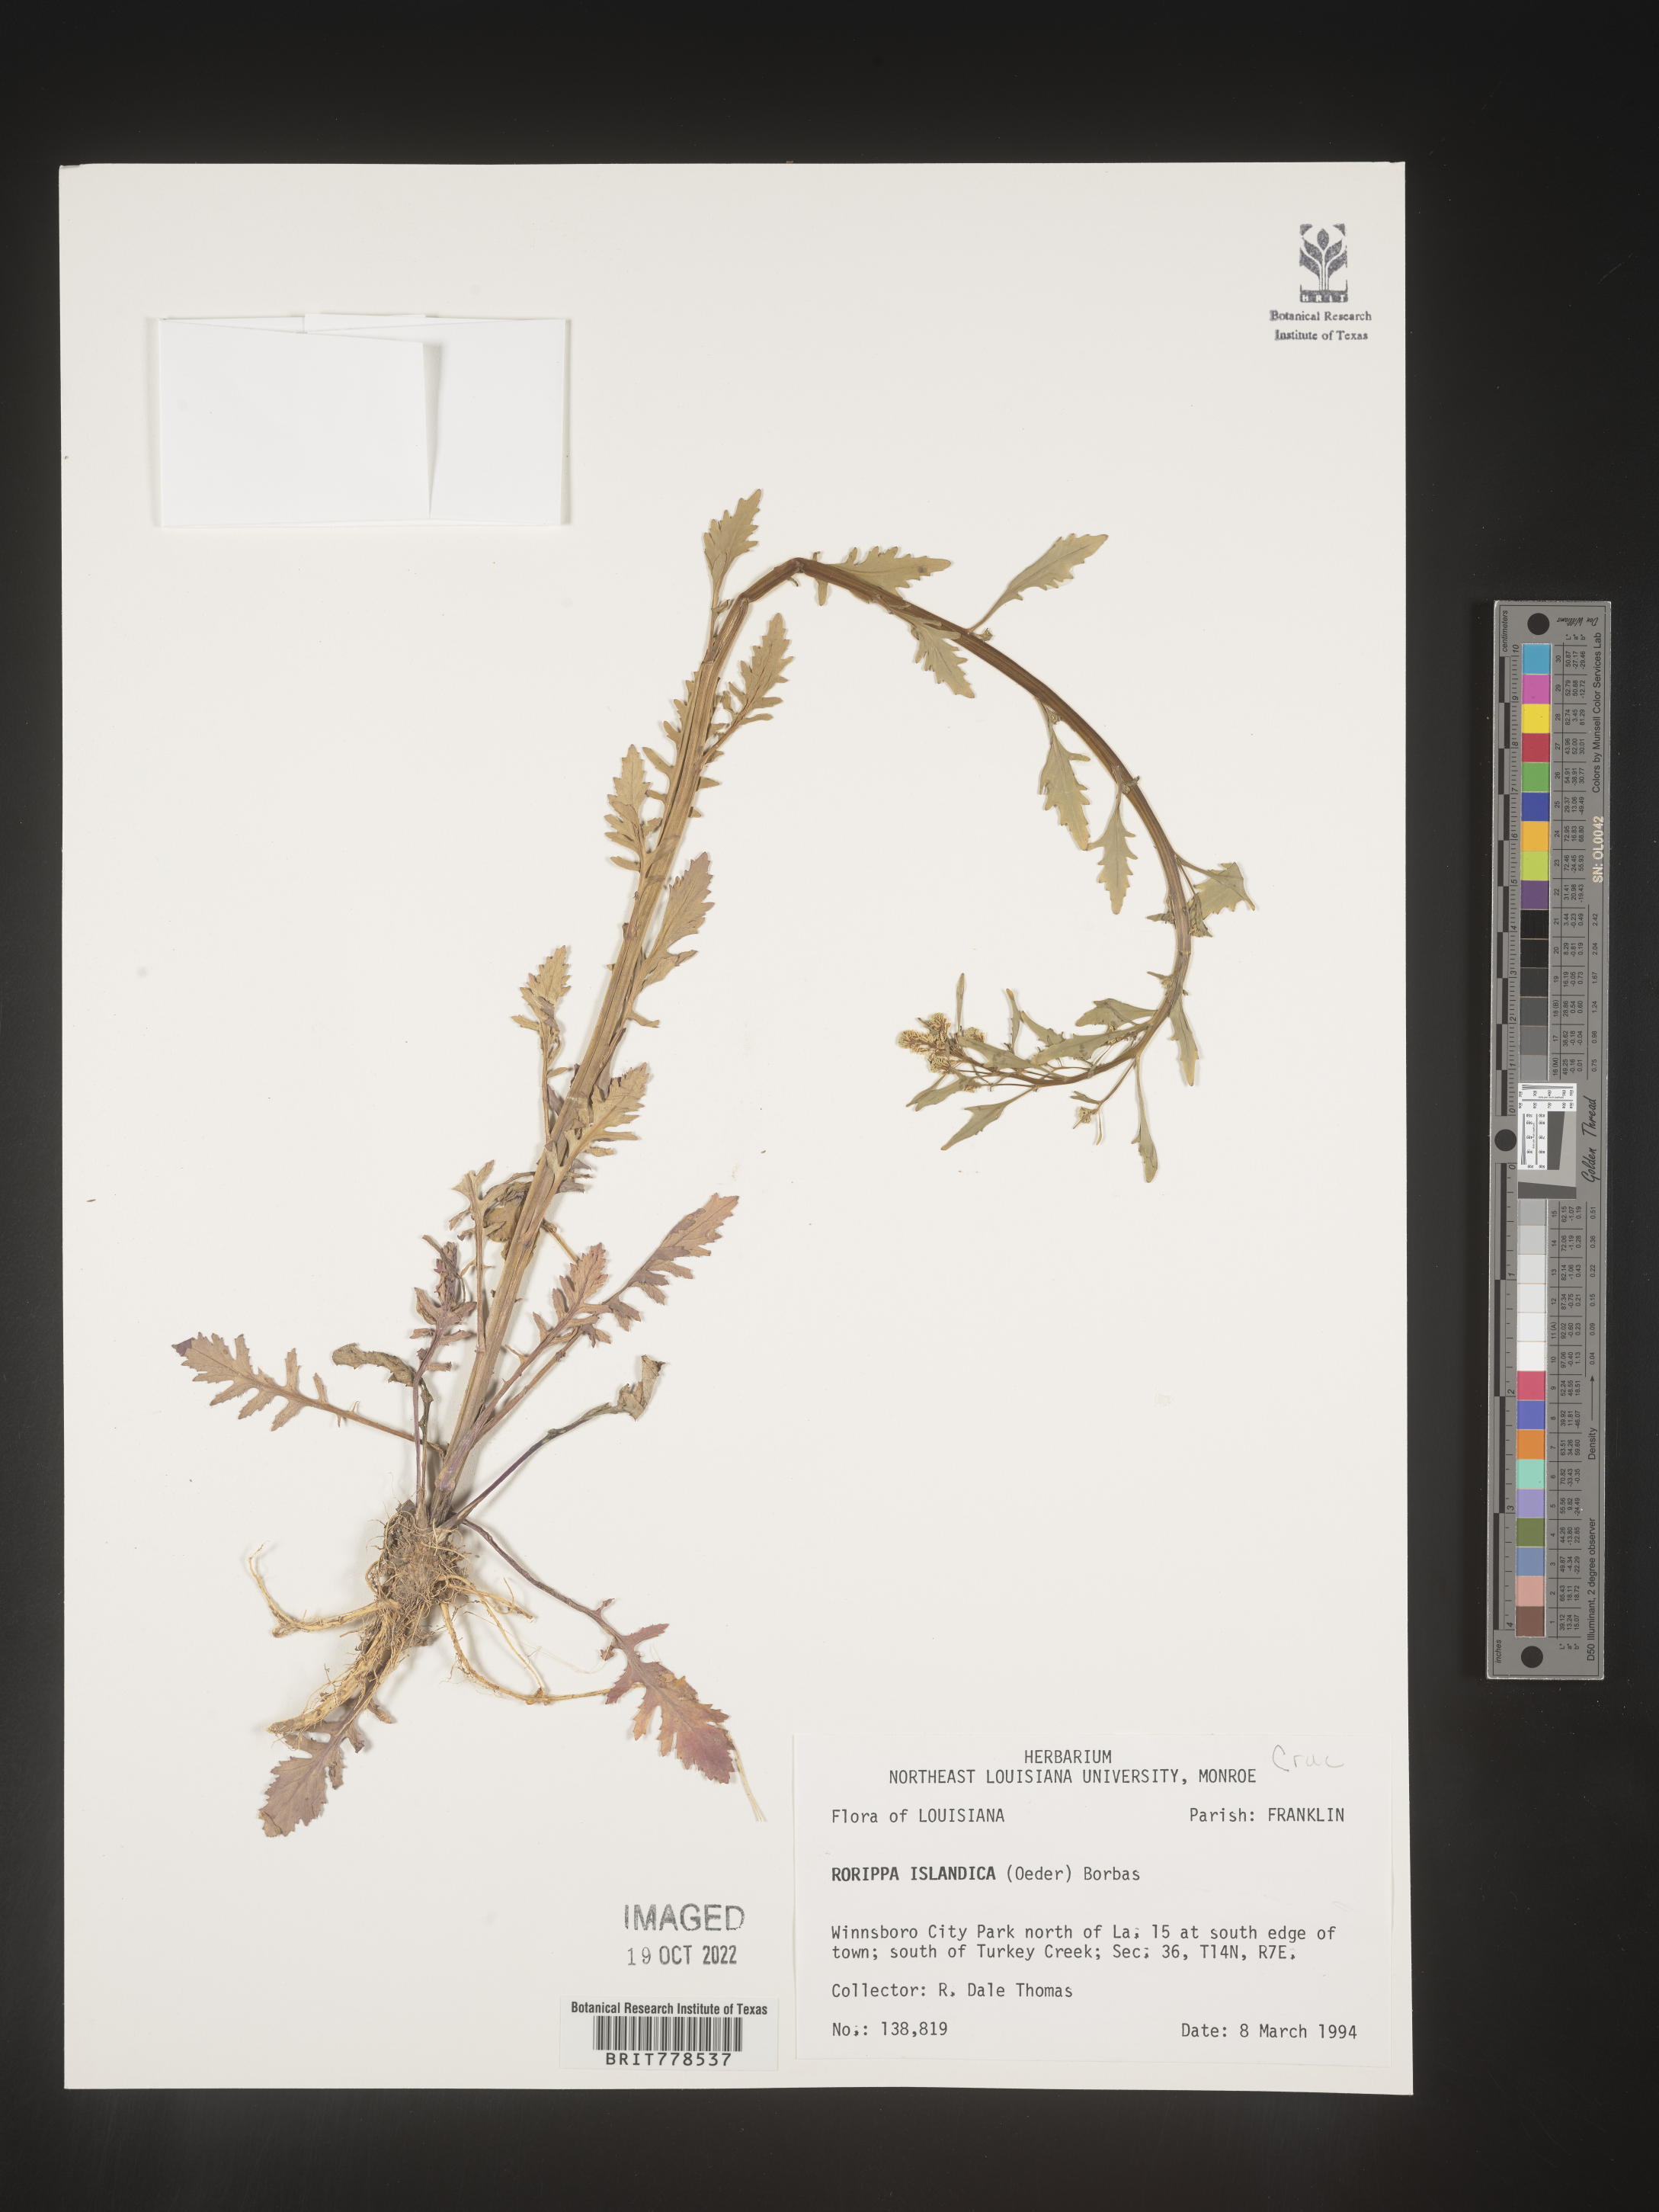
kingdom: Plantae
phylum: Tracheophyta
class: Magnoliopsida
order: Brassicales
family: Brassicaceae
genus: Rorippa
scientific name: Rorippa
